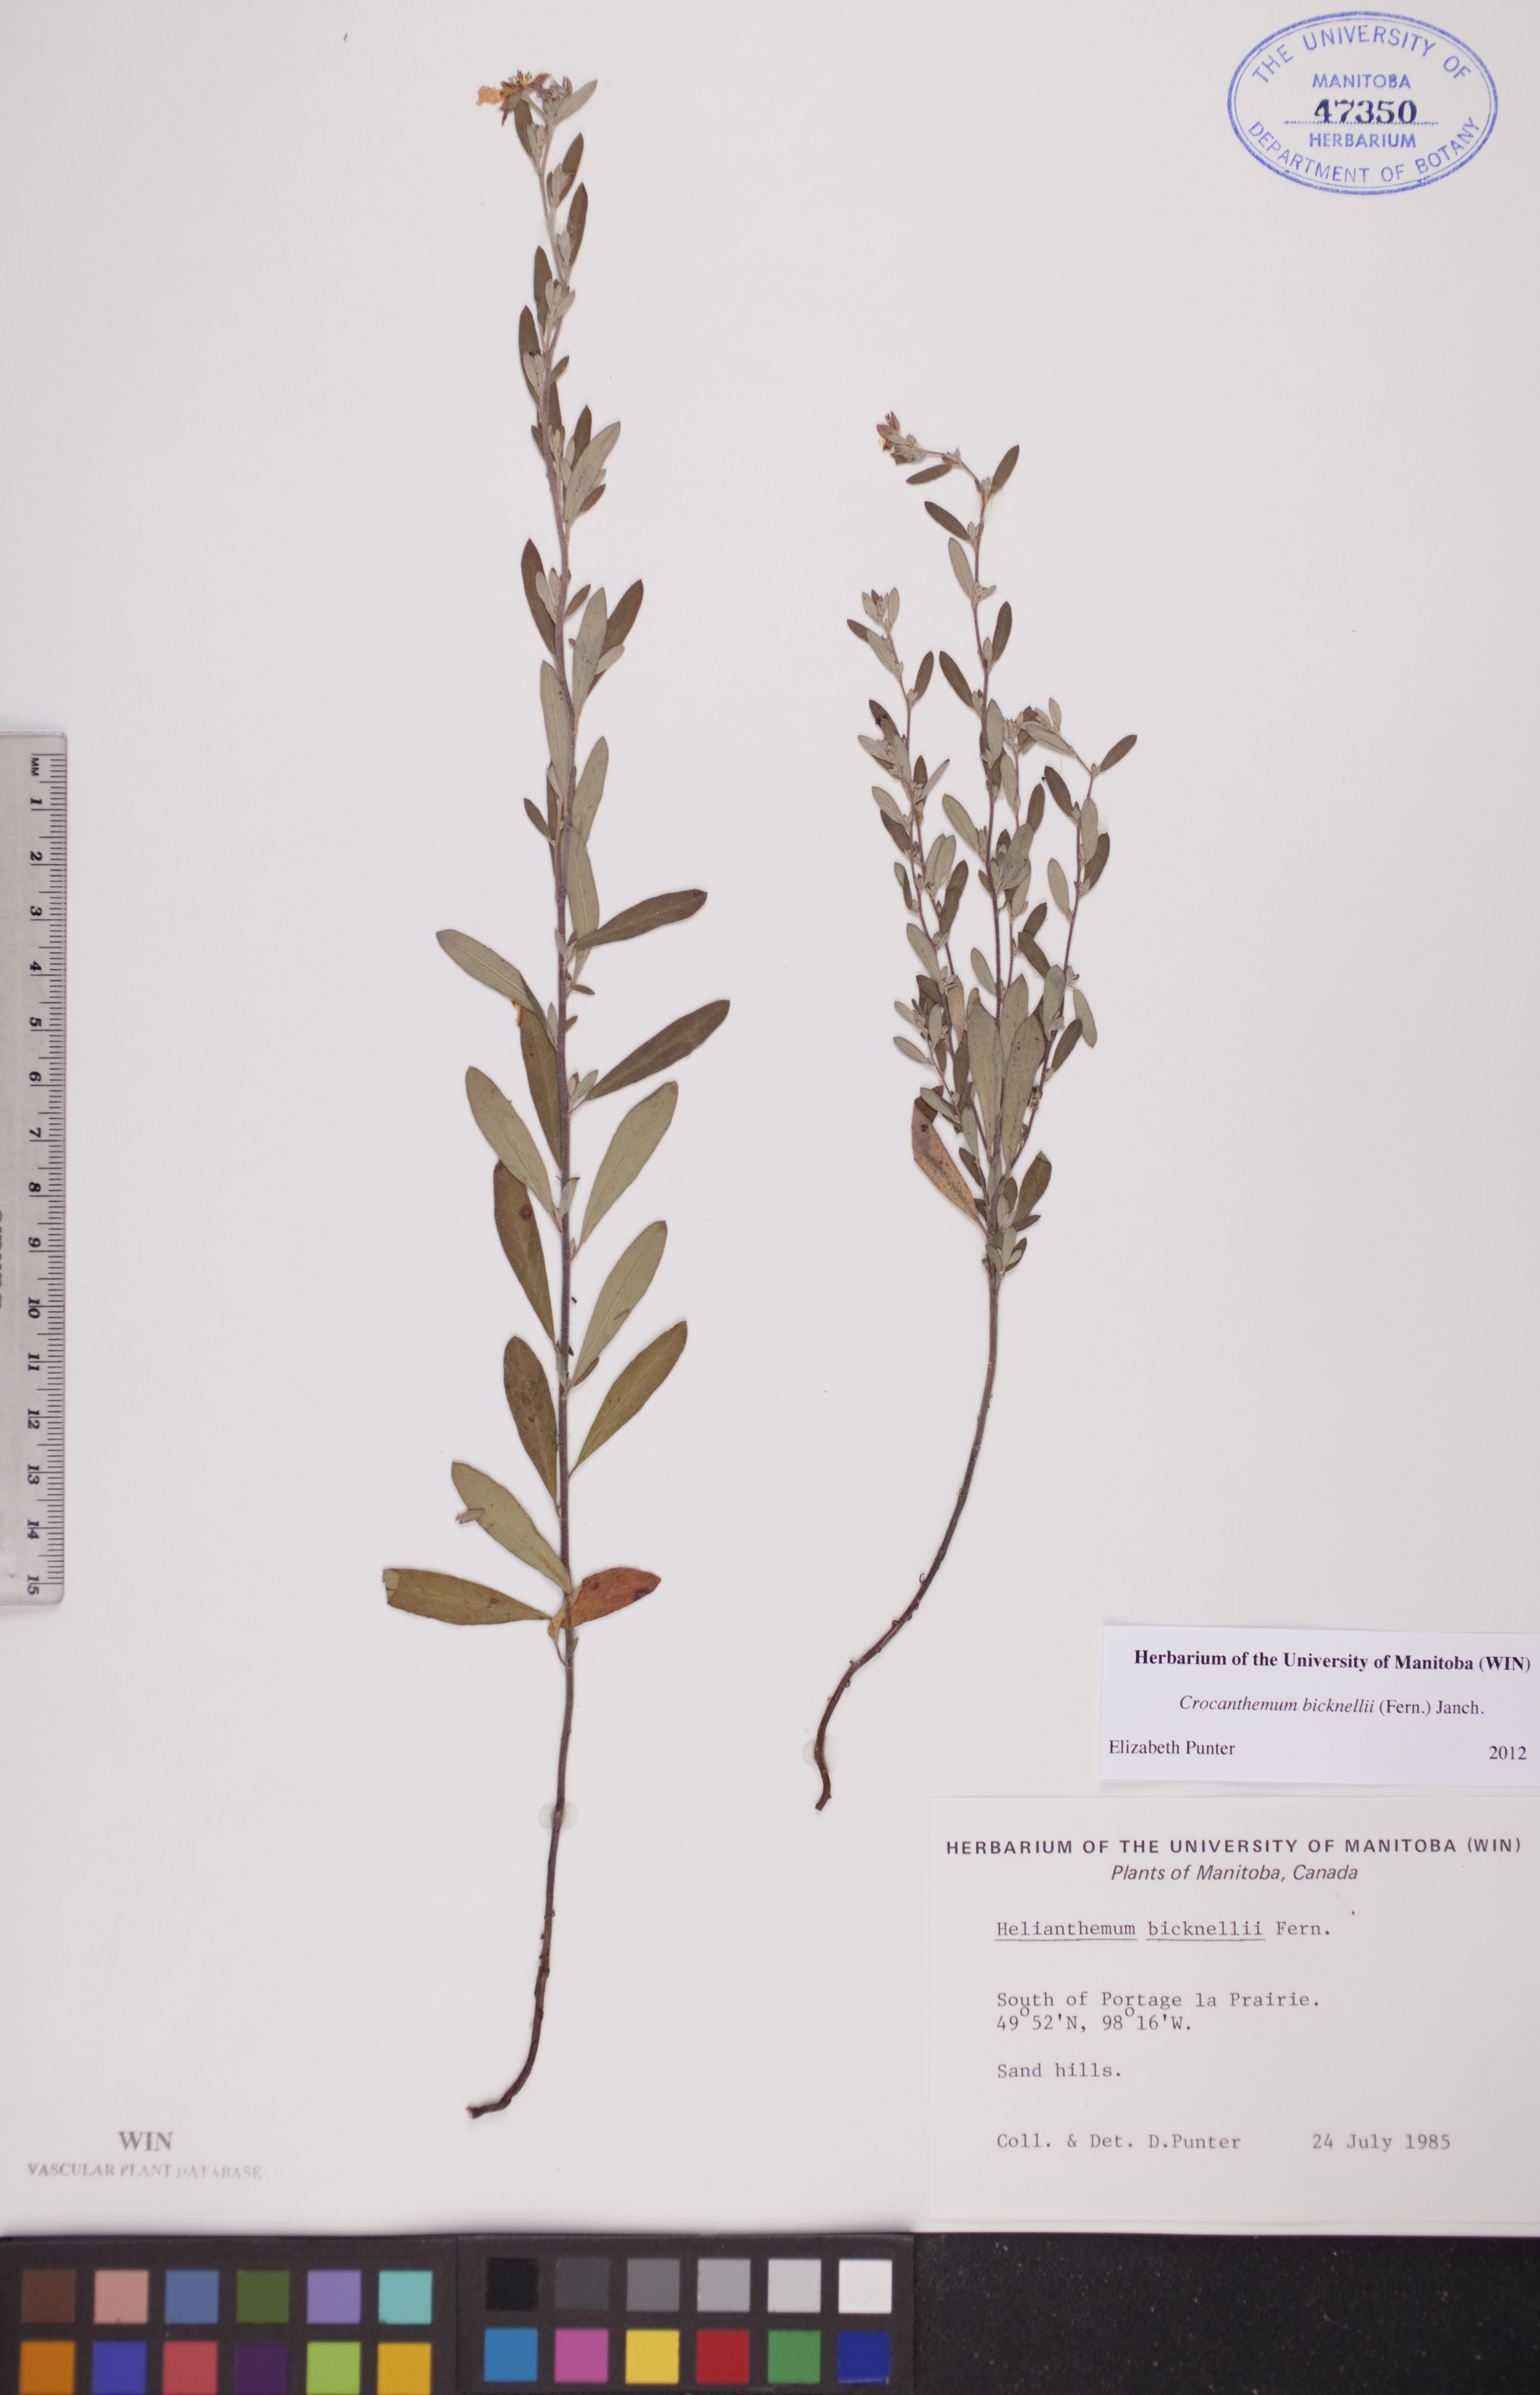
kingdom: Plantae
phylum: Tracheophyta
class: Magnoliopsida
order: Malvales
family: Cistaceae
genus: Crocanthemum
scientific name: Crocanthemum bicknellii
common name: Hoary frostweed
